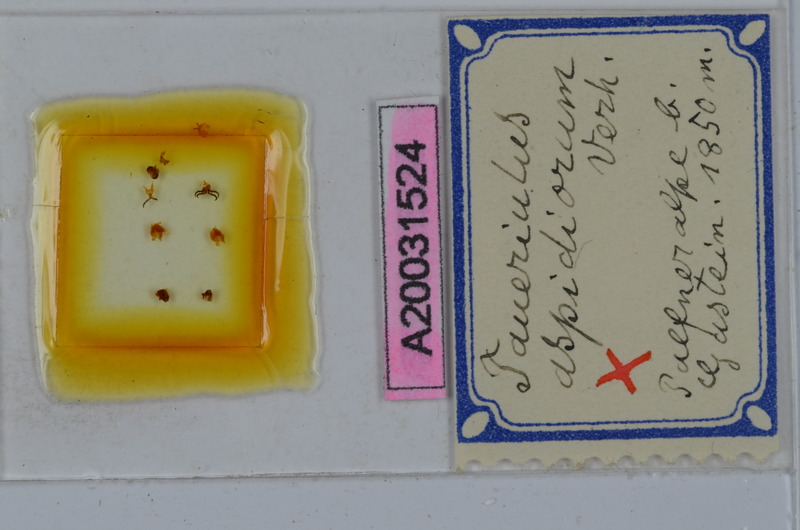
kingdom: Animalia
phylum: Arthropoda
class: Diplopoda
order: Julida
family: Julidae
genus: Ophyiulus
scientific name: Ophyiulus aspidiorum
